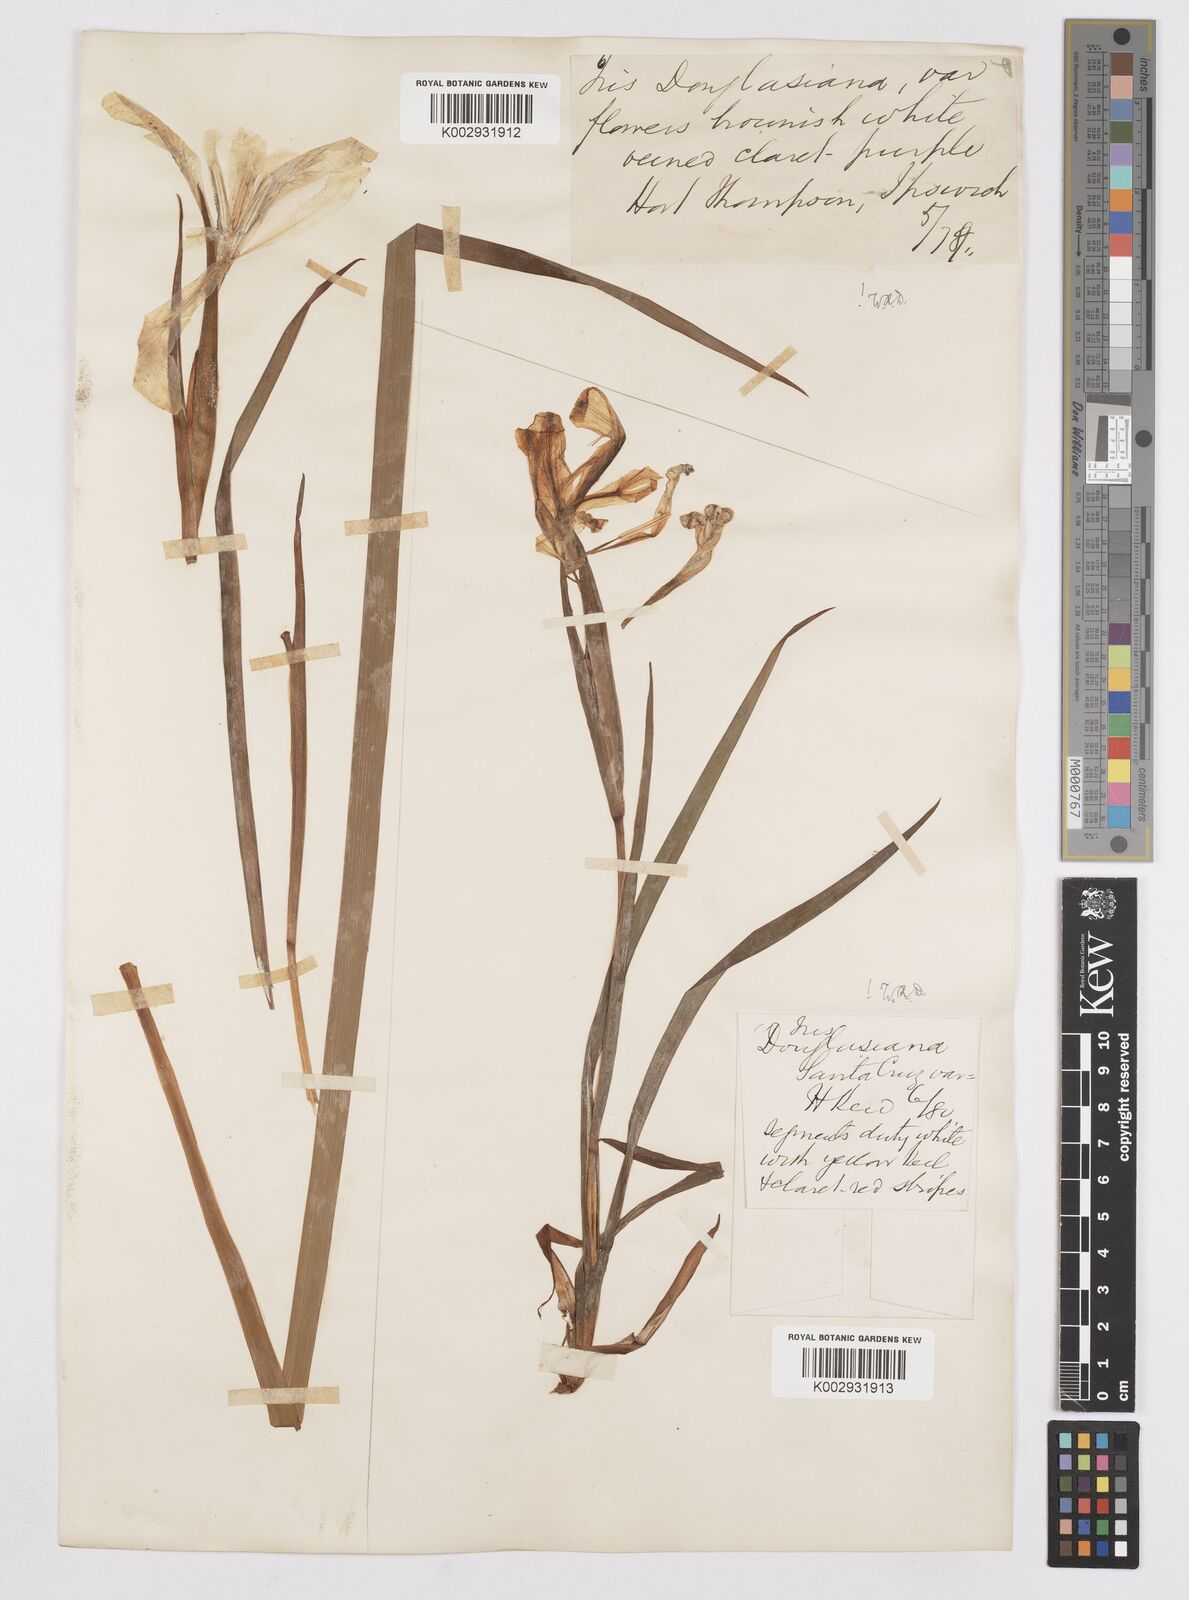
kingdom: Plantae
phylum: Tracheophyta
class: Liliopsida
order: Asparagales
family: Iridaceae
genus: Iris
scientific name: Iris douglasiana
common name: Marin iris
